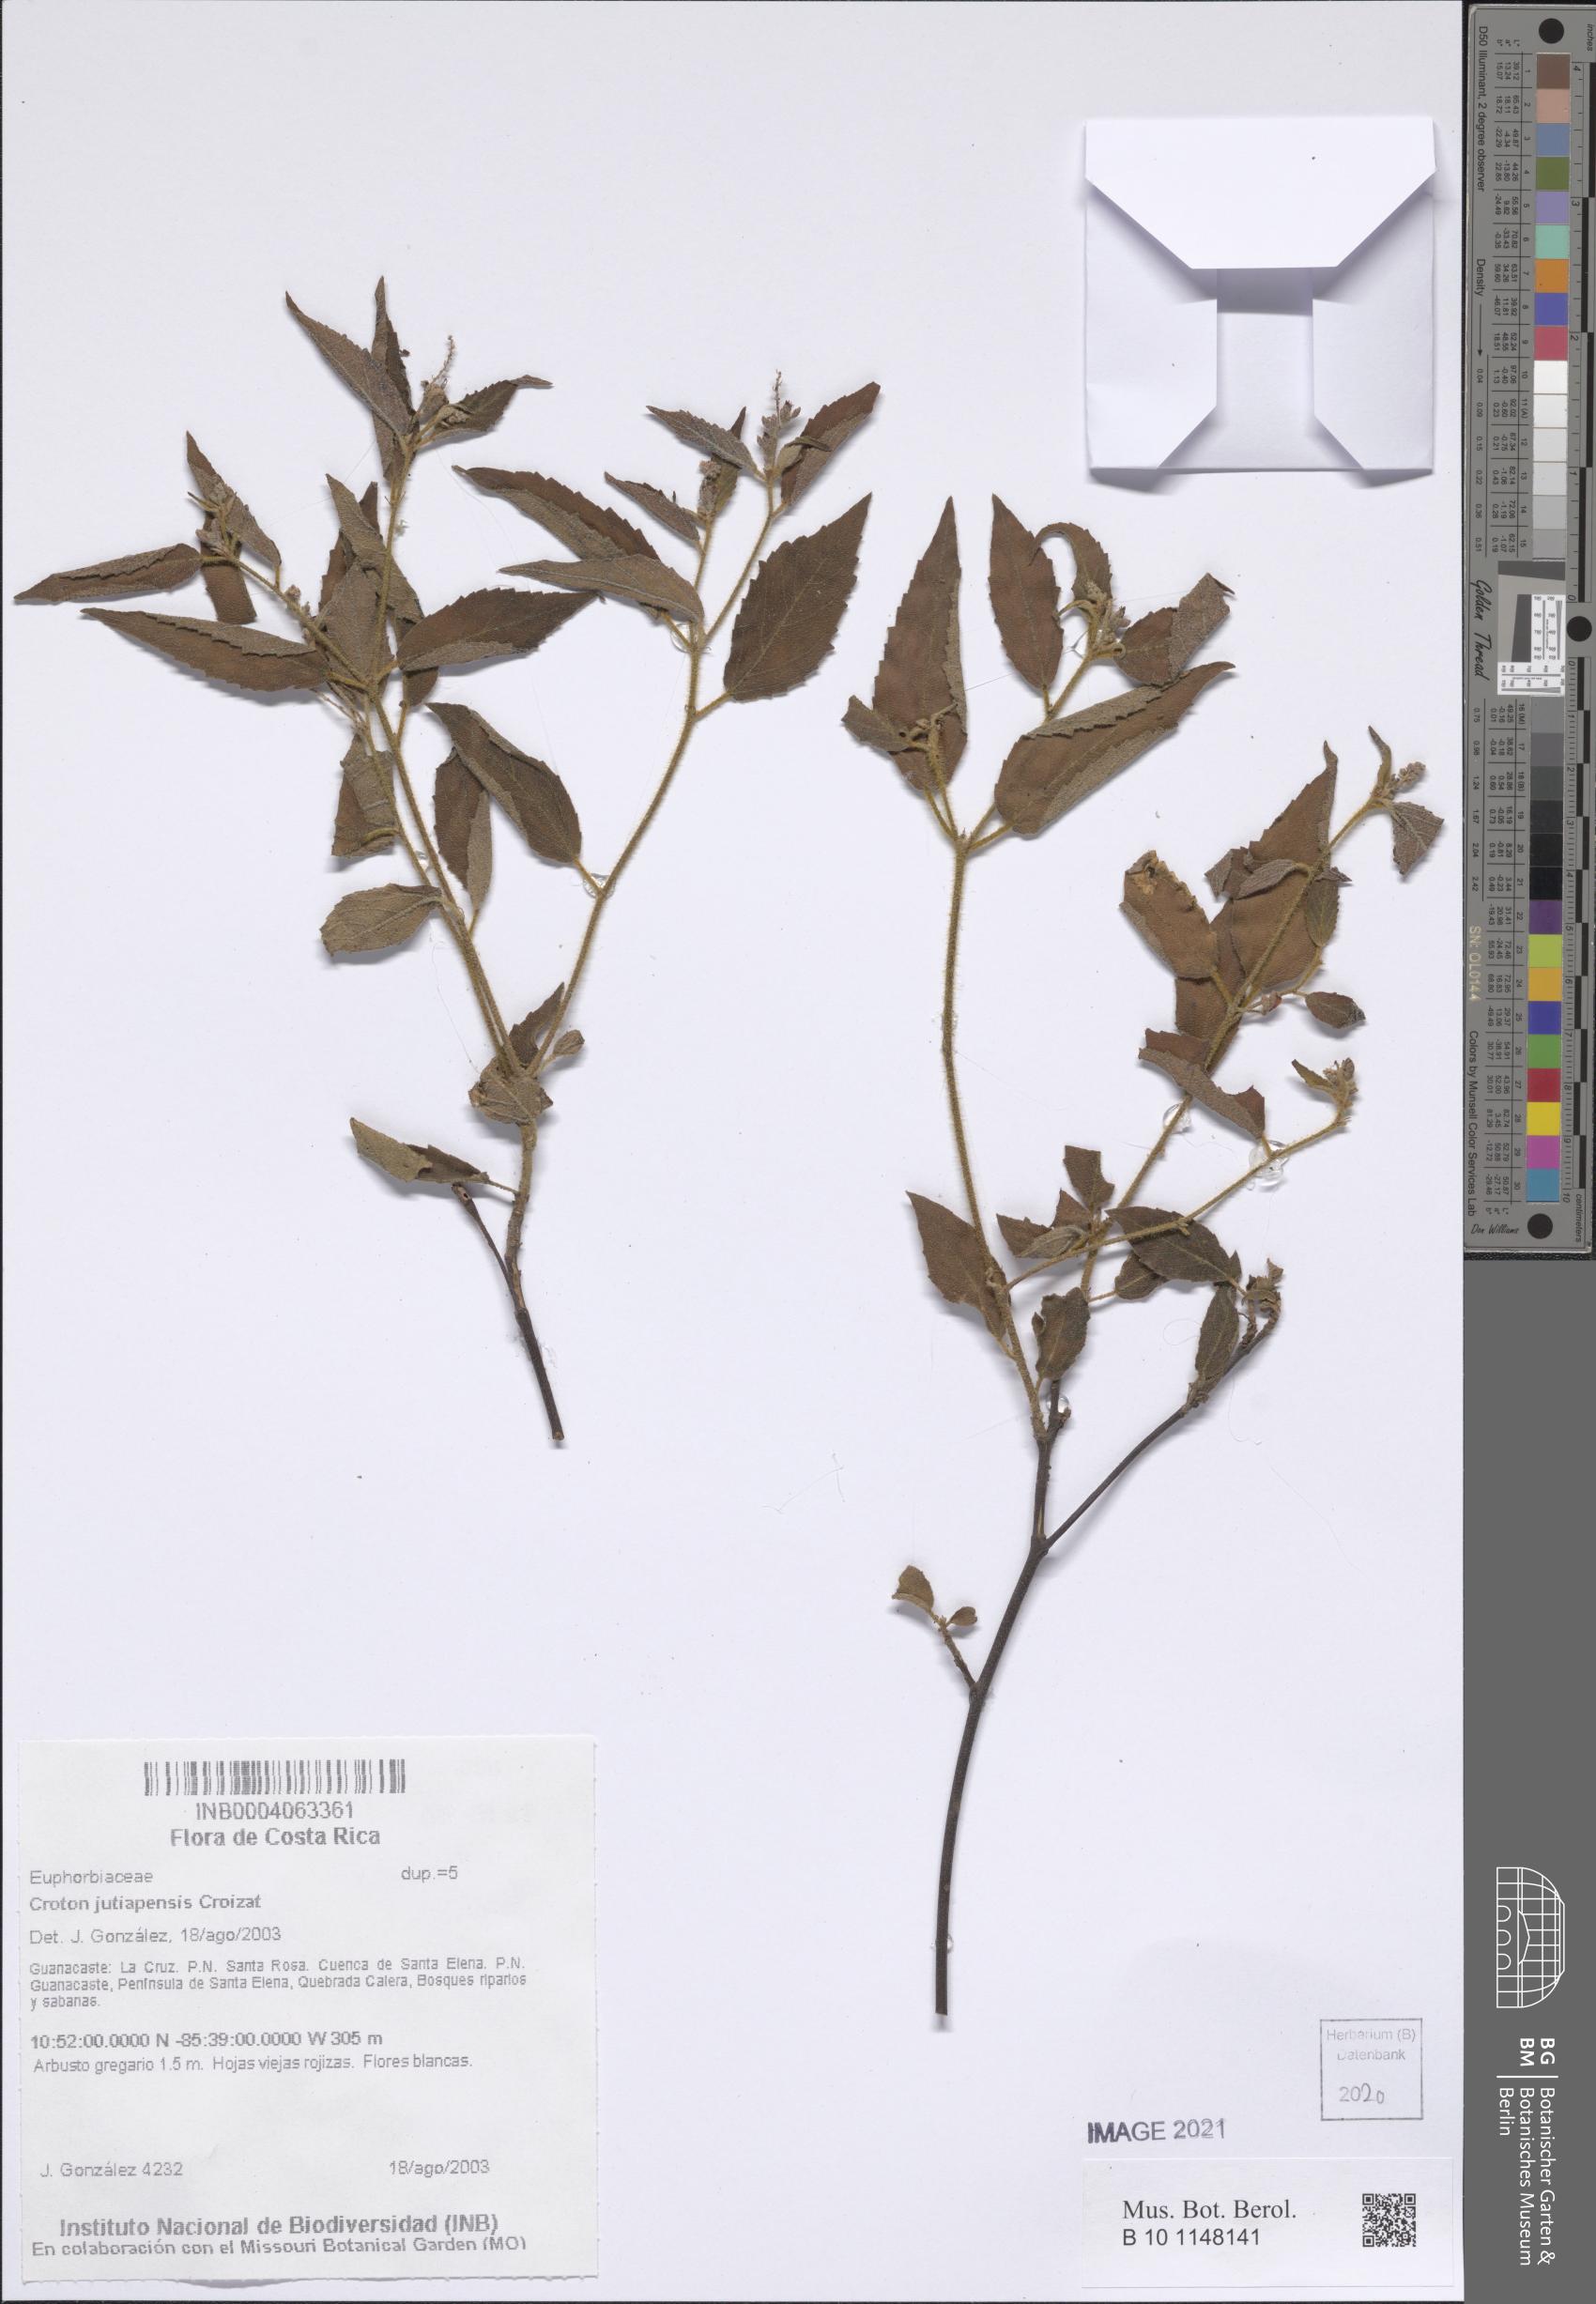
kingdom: Plantae
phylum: Tracheophyta
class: Magnoliopsida
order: Malpighiales
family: Euphorbiaceae
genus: Croton
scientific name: Croton jutiapensis
